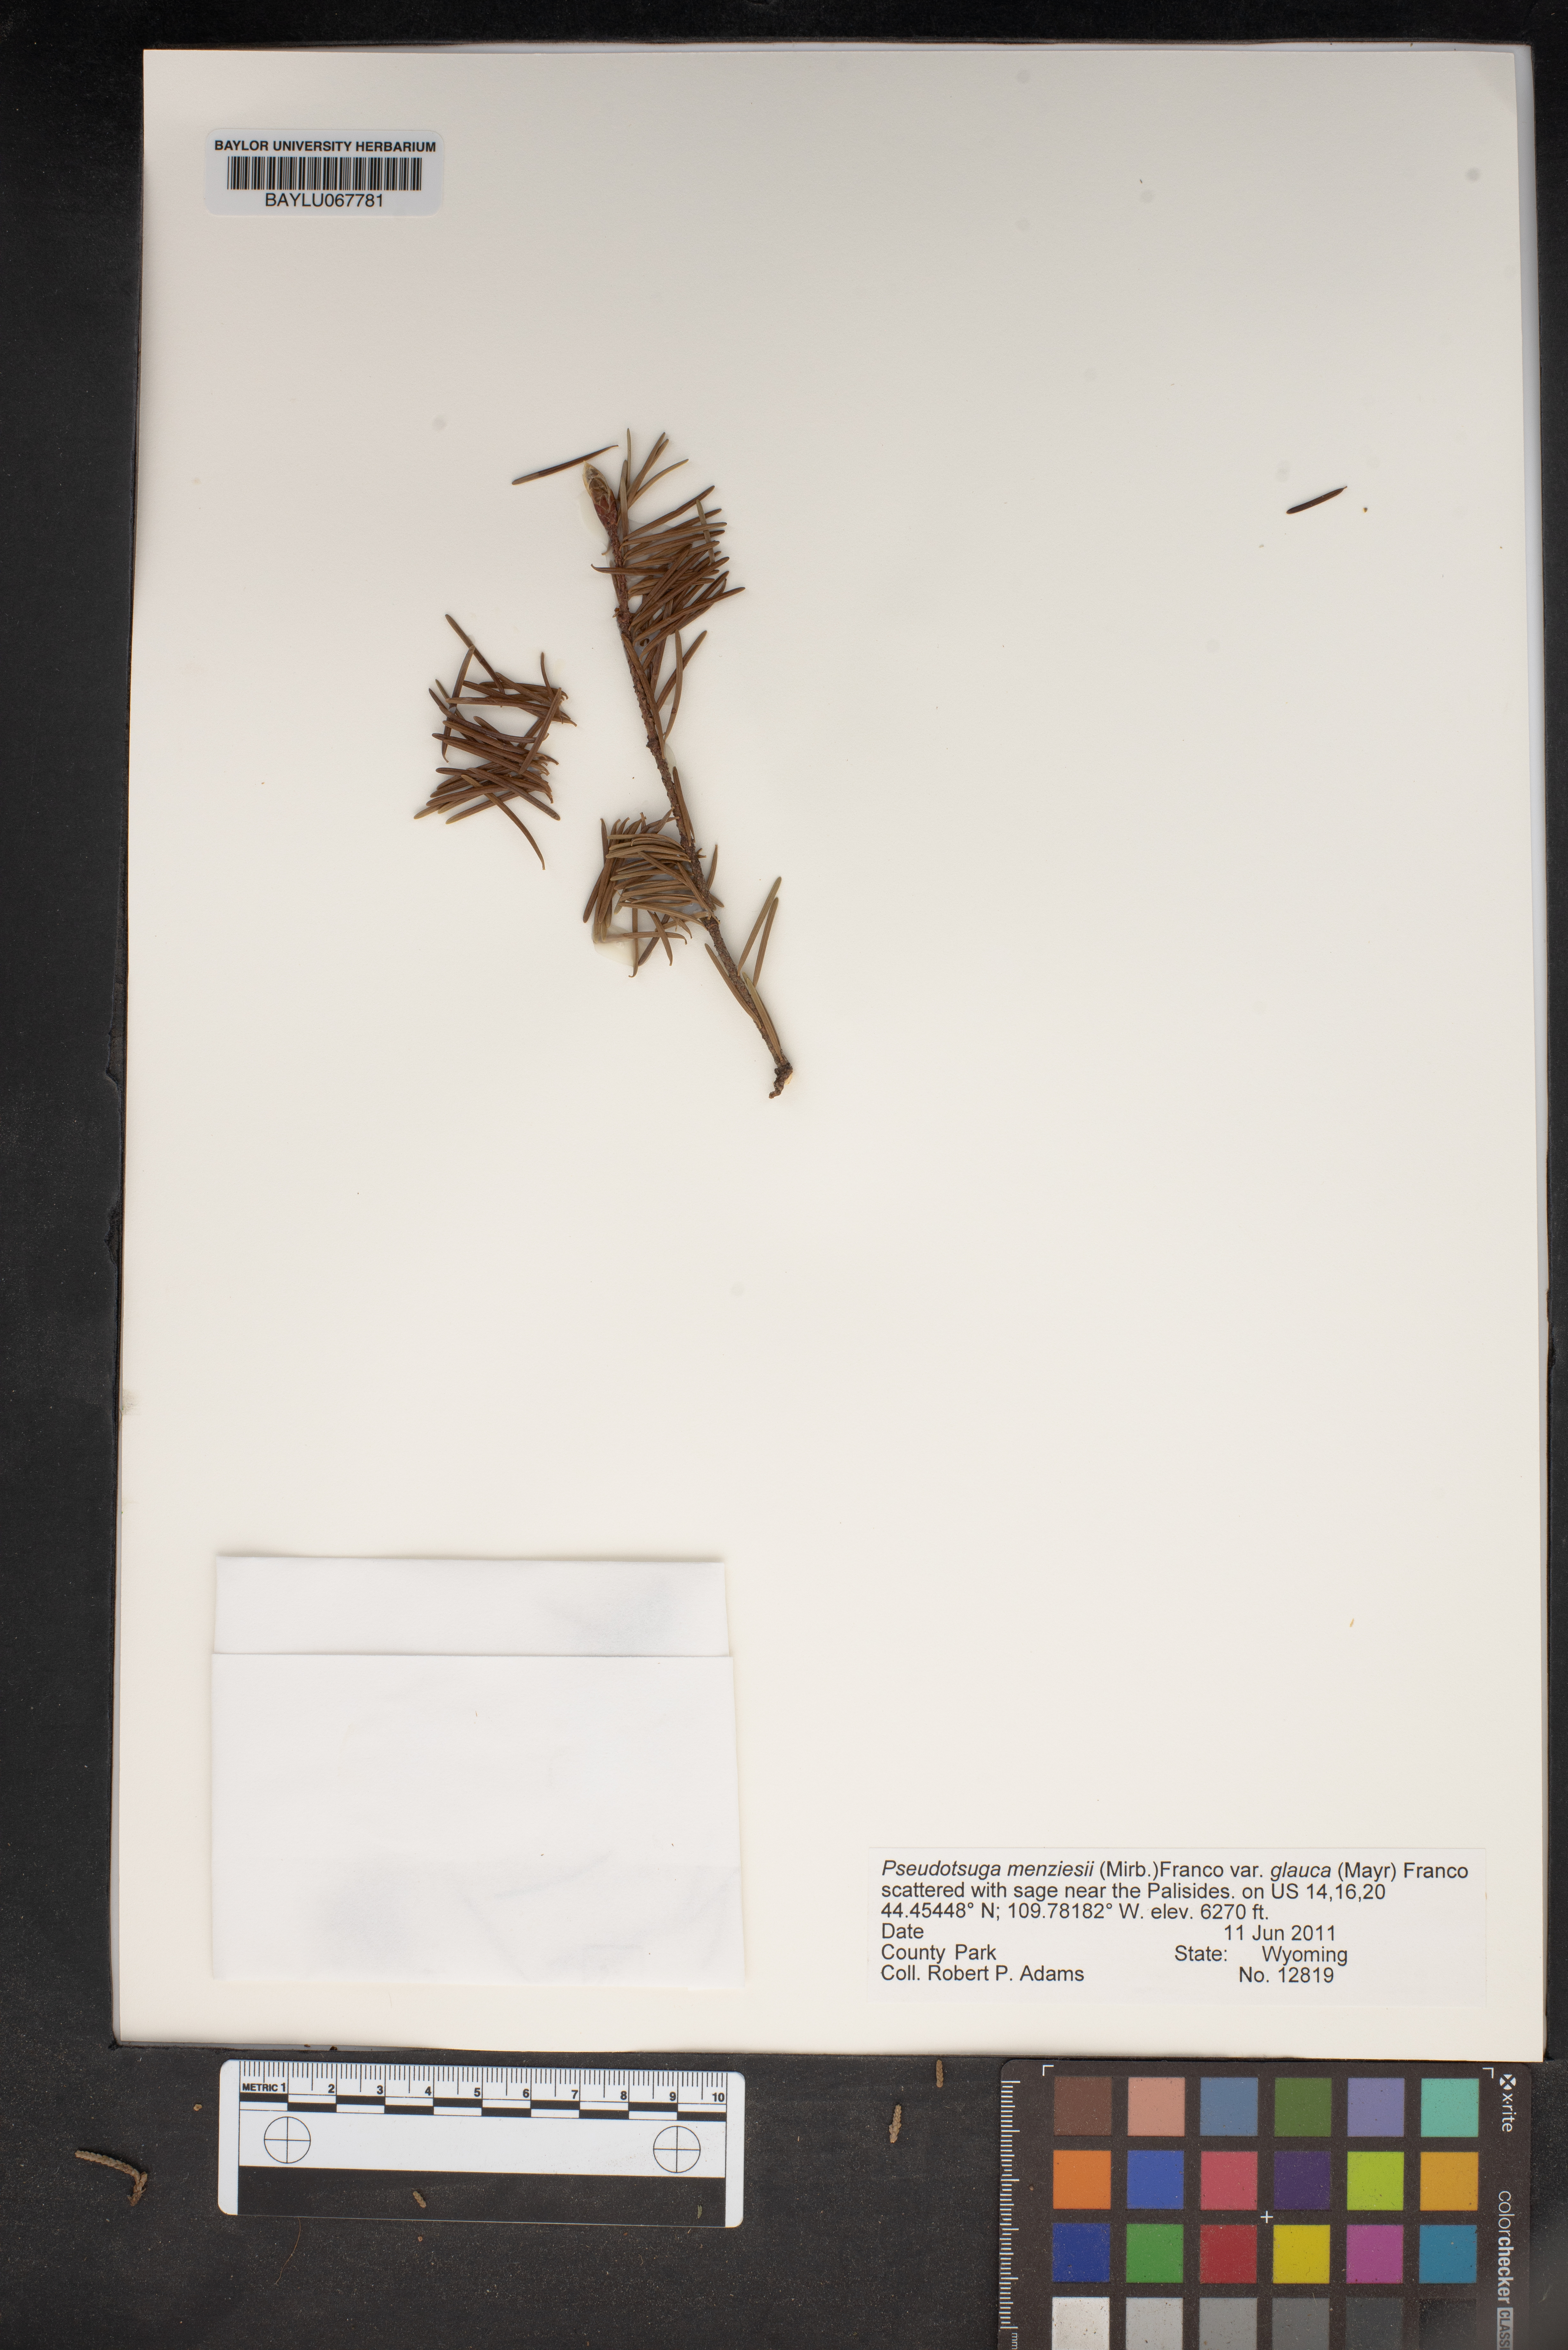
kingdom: Plantae
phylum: Tracheophyta
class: Pinopsida
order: Pinales
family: Pinaceae
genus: Pseudotsuga
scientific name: Pseudotsuga menziesii
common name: Douglas fir
